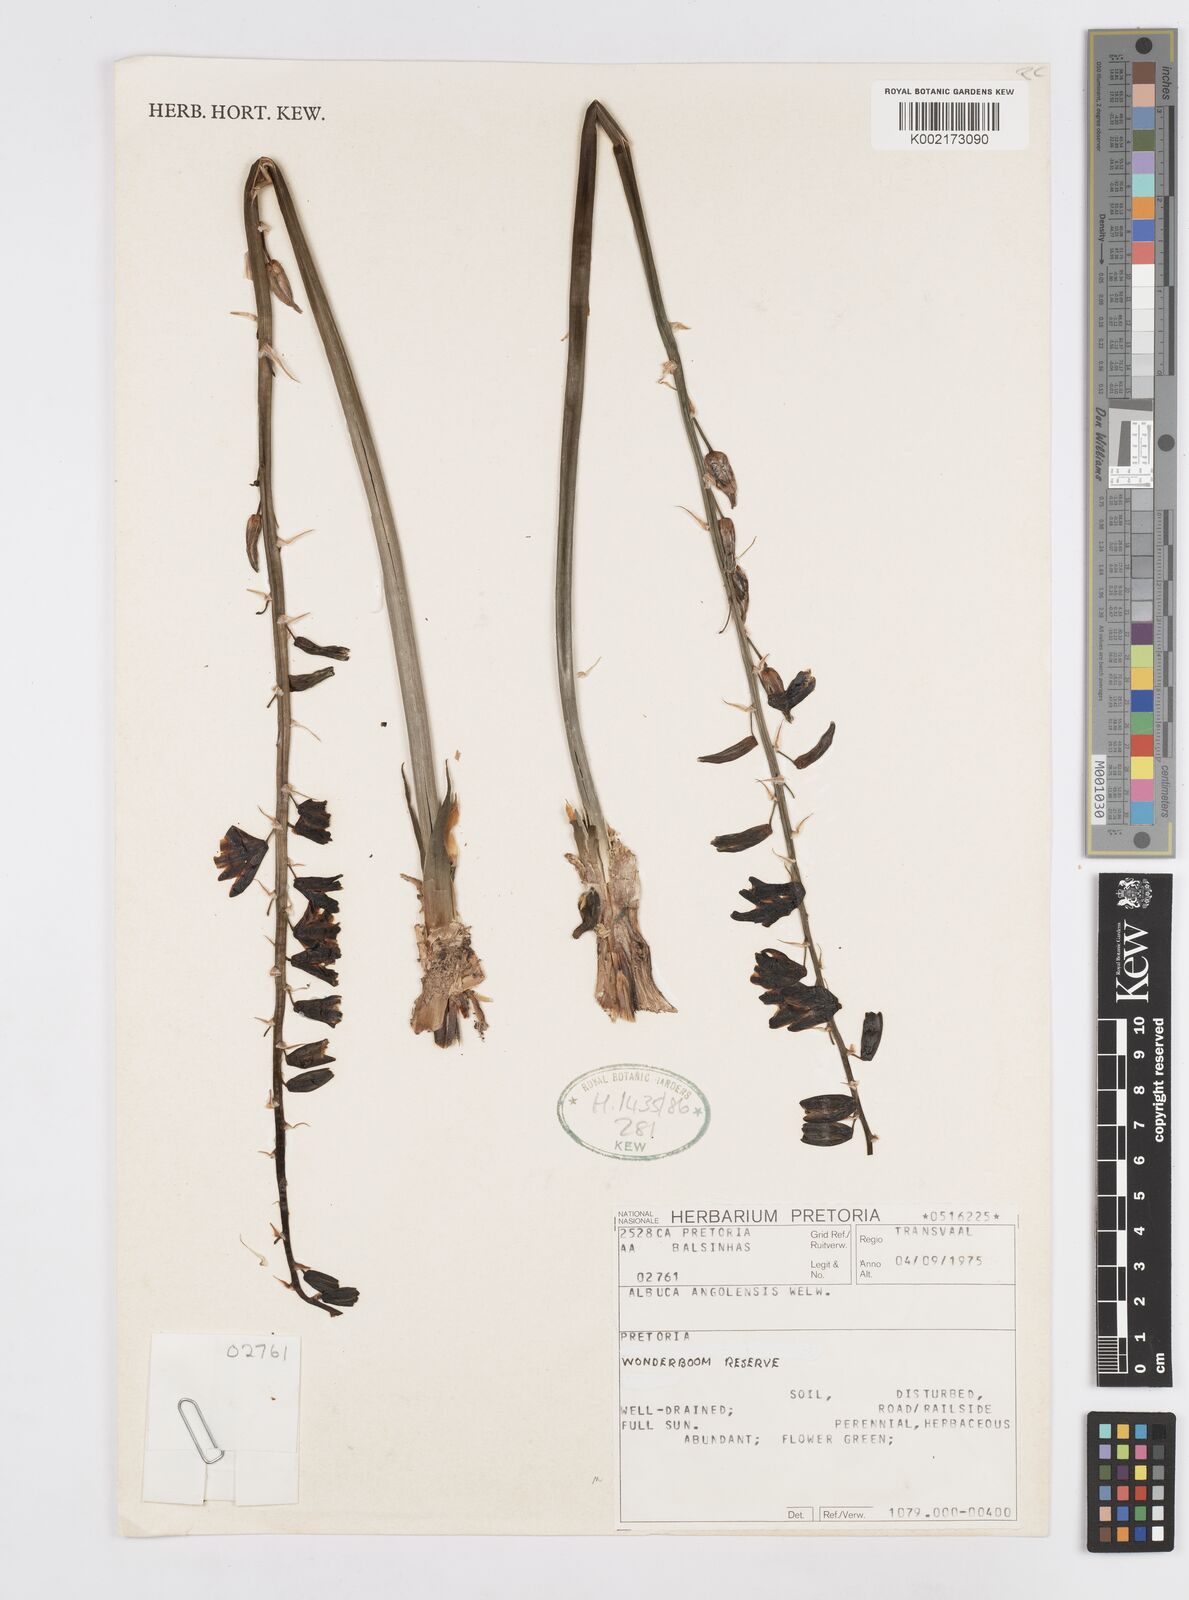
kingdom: Plantae
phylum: Tracheophyta
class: Liliopsida
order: Asparagales
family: Asparagaceae
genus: Albuca
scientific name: Albuca abyssinica
